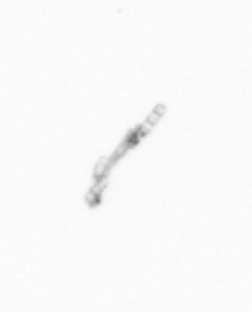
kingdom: Chromista
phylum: Ochrophyta
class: Bacillariophyceae
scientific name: Bacillariophyceae
